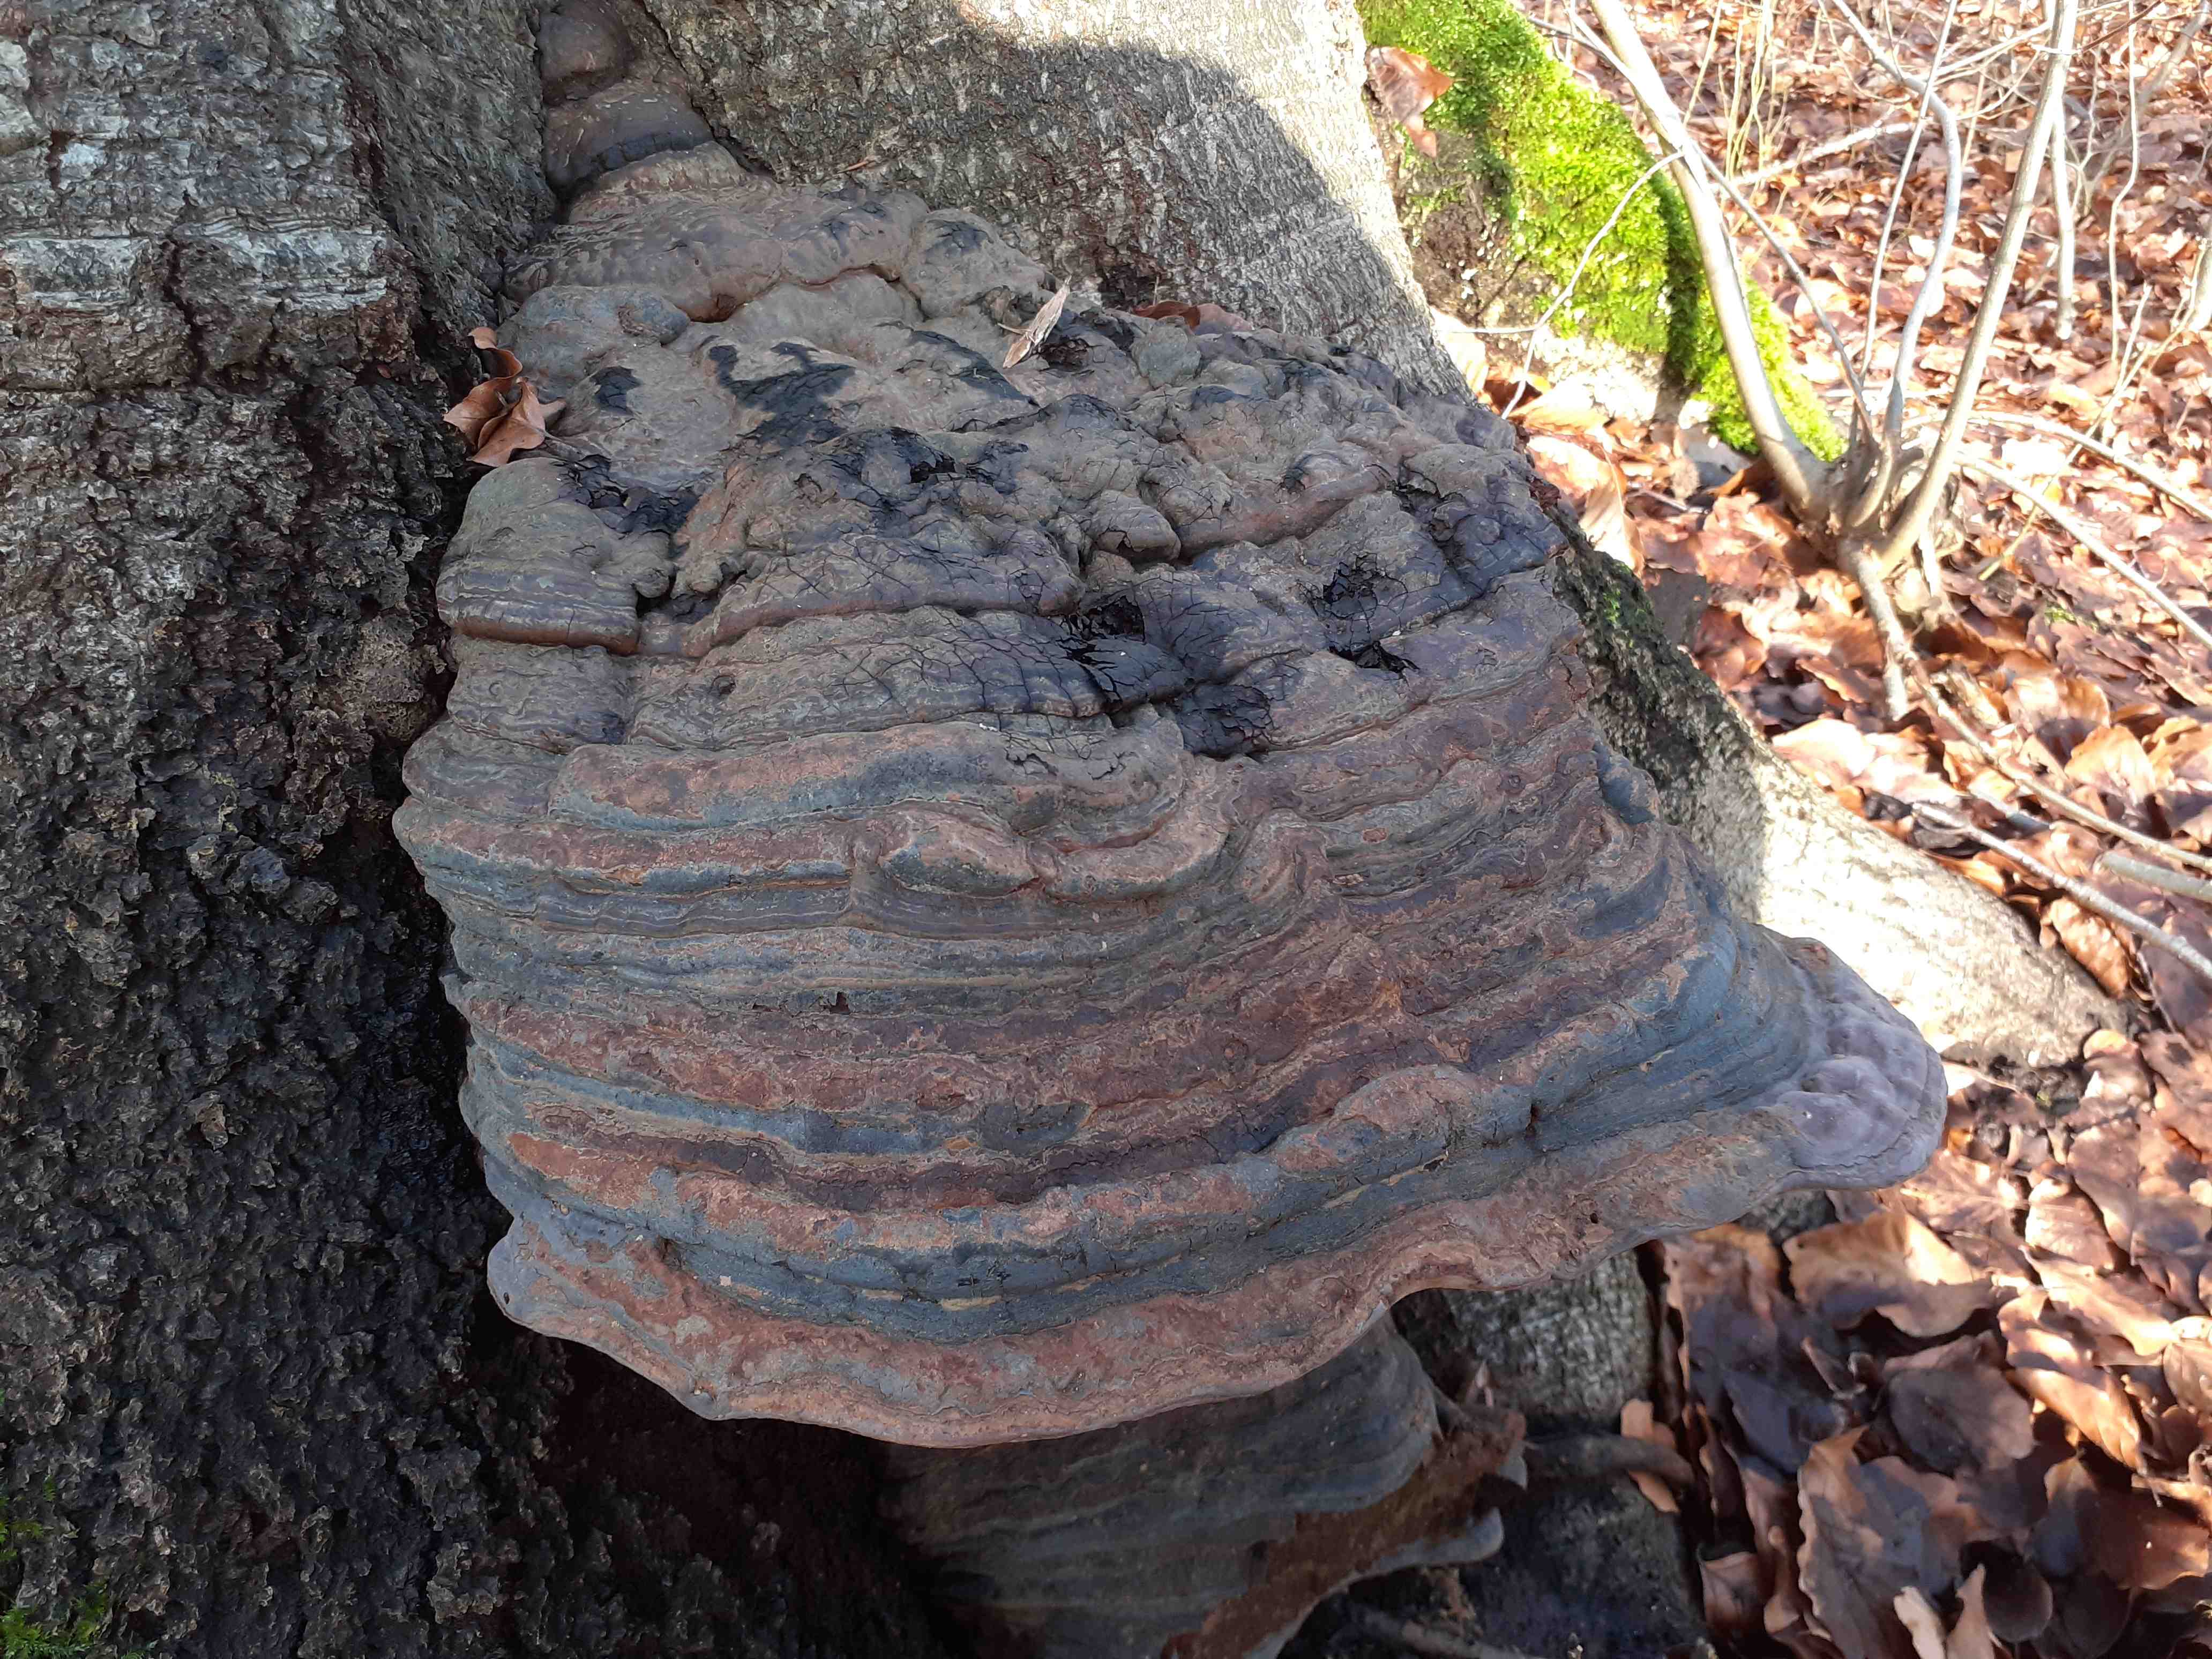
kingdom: Fungi
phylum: Basidiomycota
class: Agaricomycetes
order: Polyporales
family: Polyporaceae
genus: Ganoderma
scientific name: Ganoderma pfeifferi
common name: kobberrød lakporesvamp
